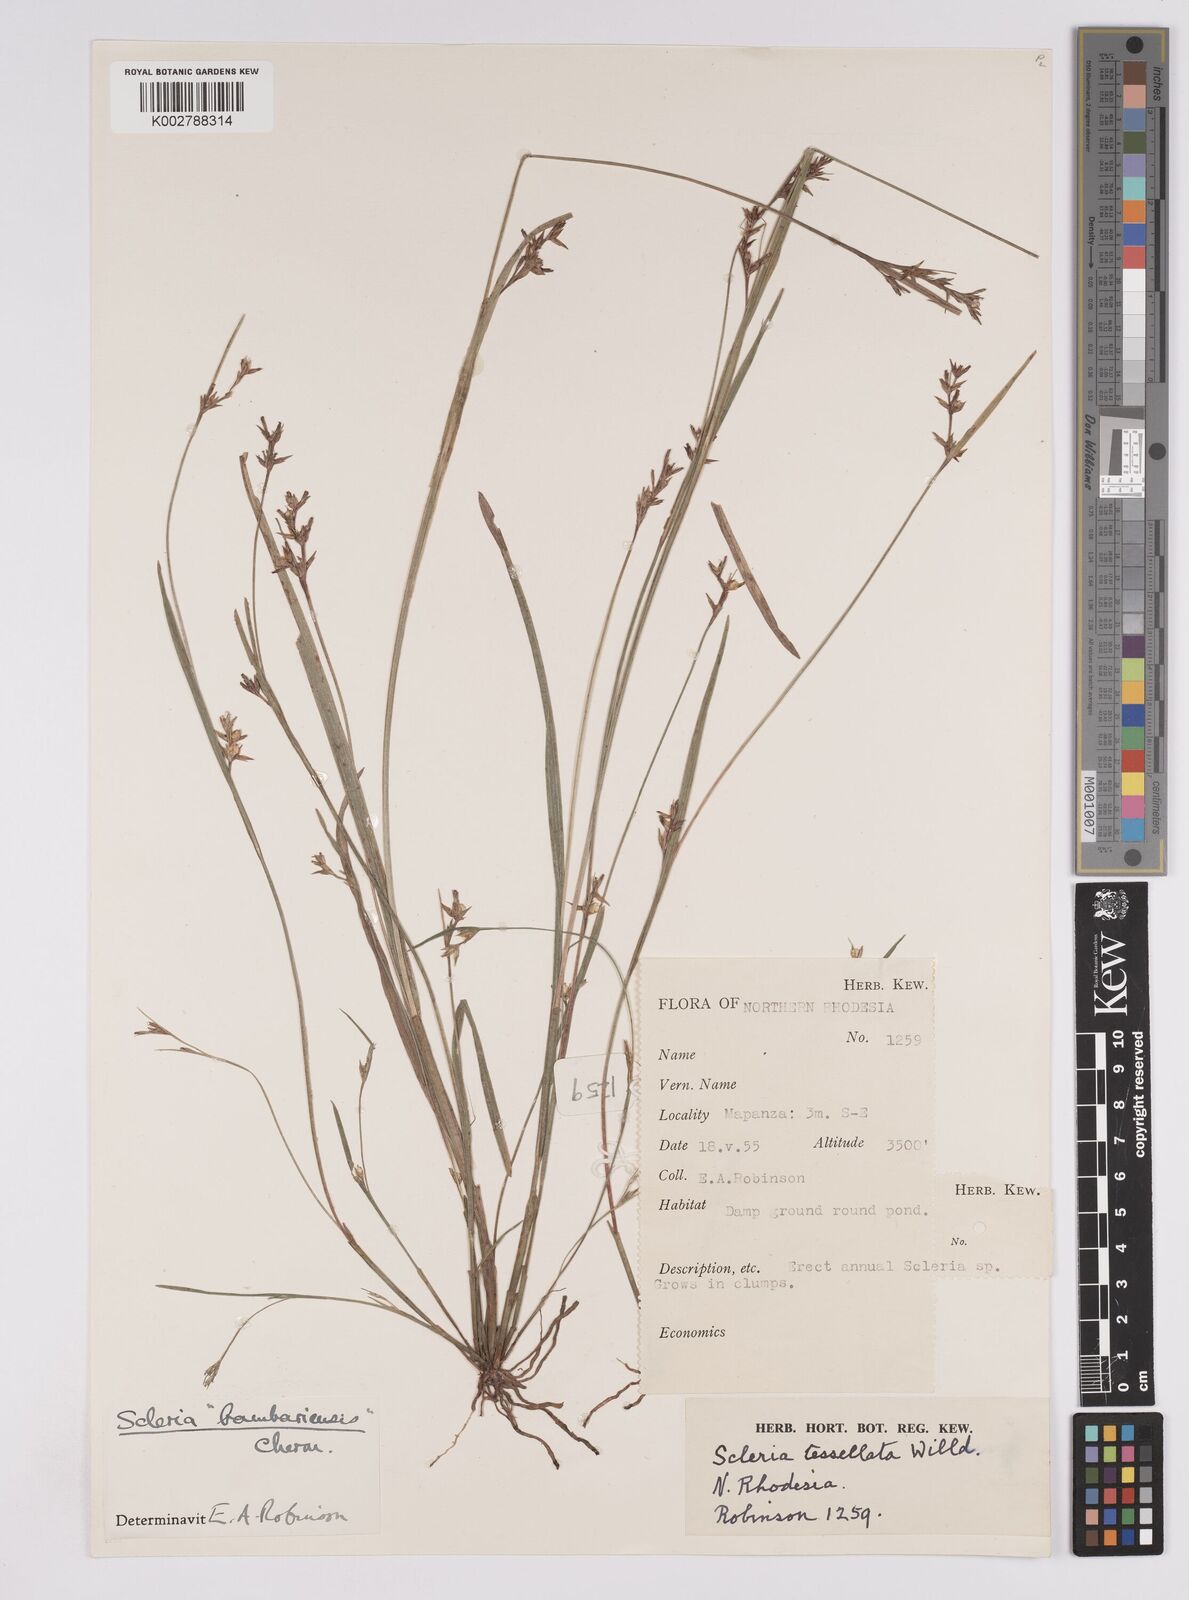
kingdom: Plantae
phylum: Tracheophyta
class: Liliopsida
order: Poales
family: Cyperaceae
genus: Scleria
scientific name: Scleria bambariensis
